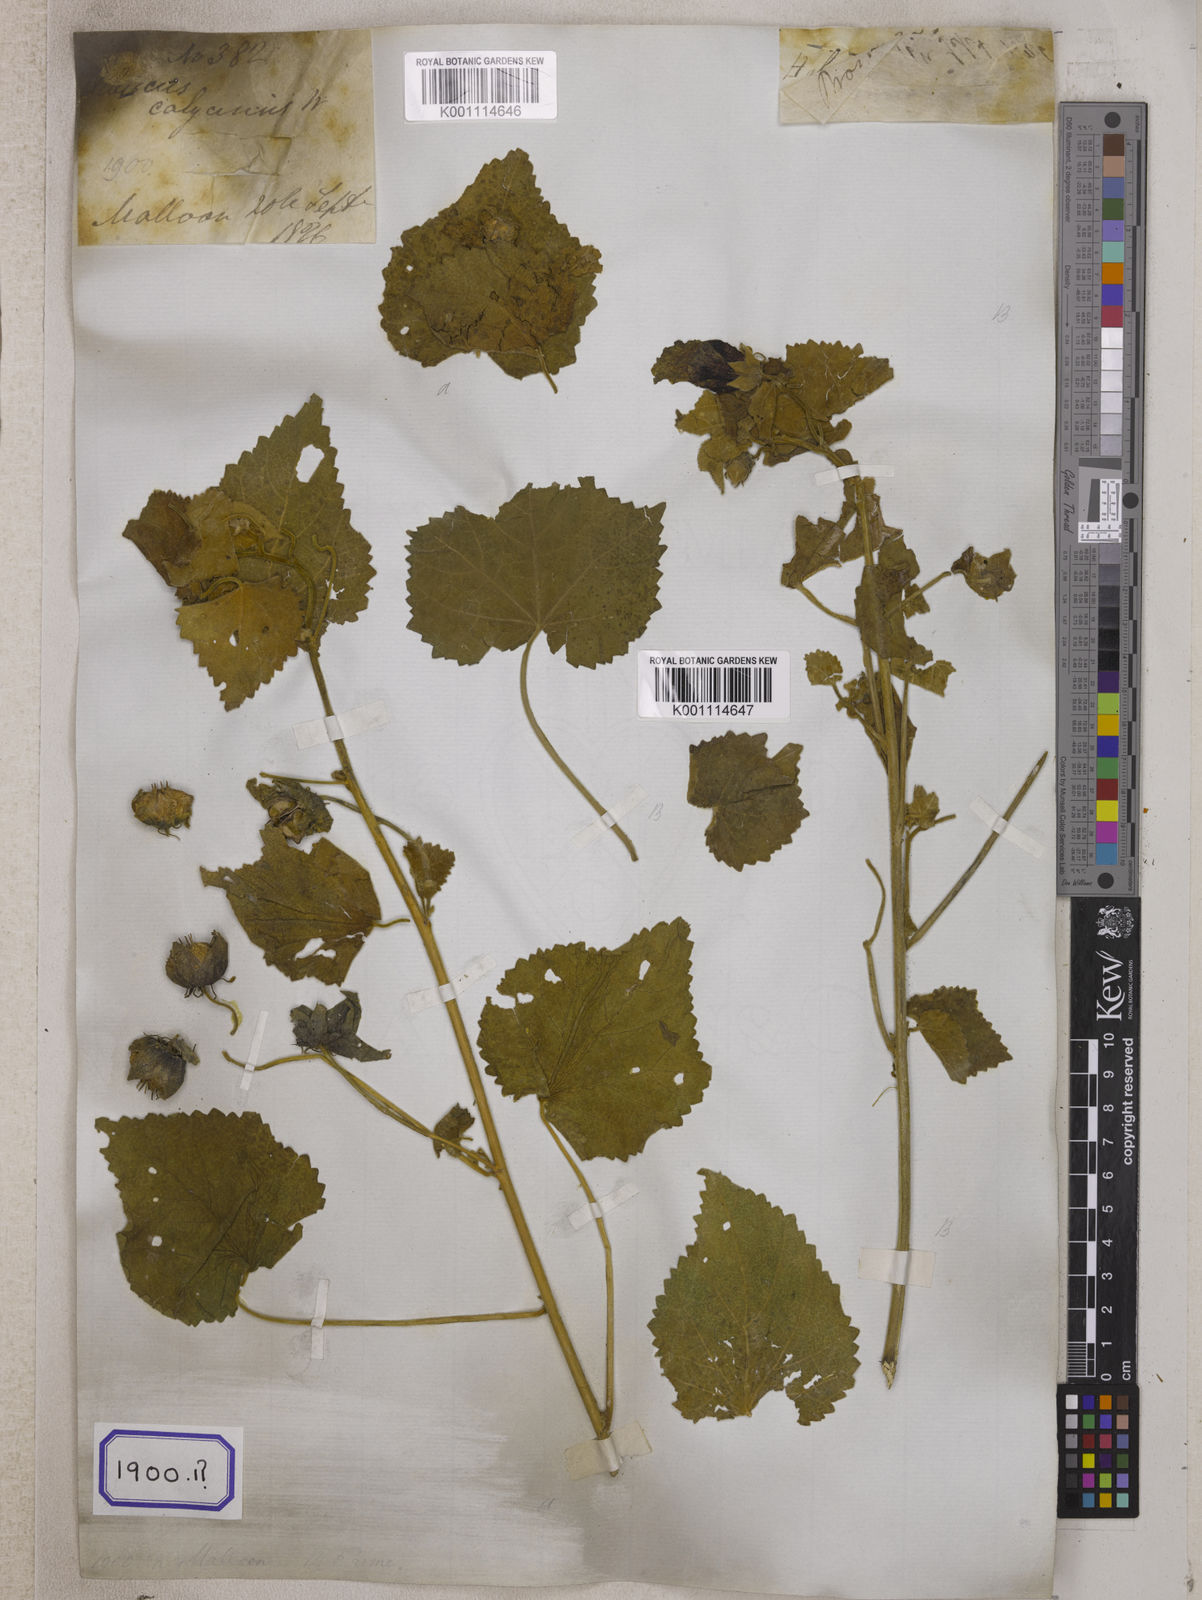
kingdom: Plantae
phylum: Tracheophyta
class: Magnoliopsida
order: Malvales
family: Malvaceae
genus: Hibiscus
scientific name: Hibiscus vitifolius
